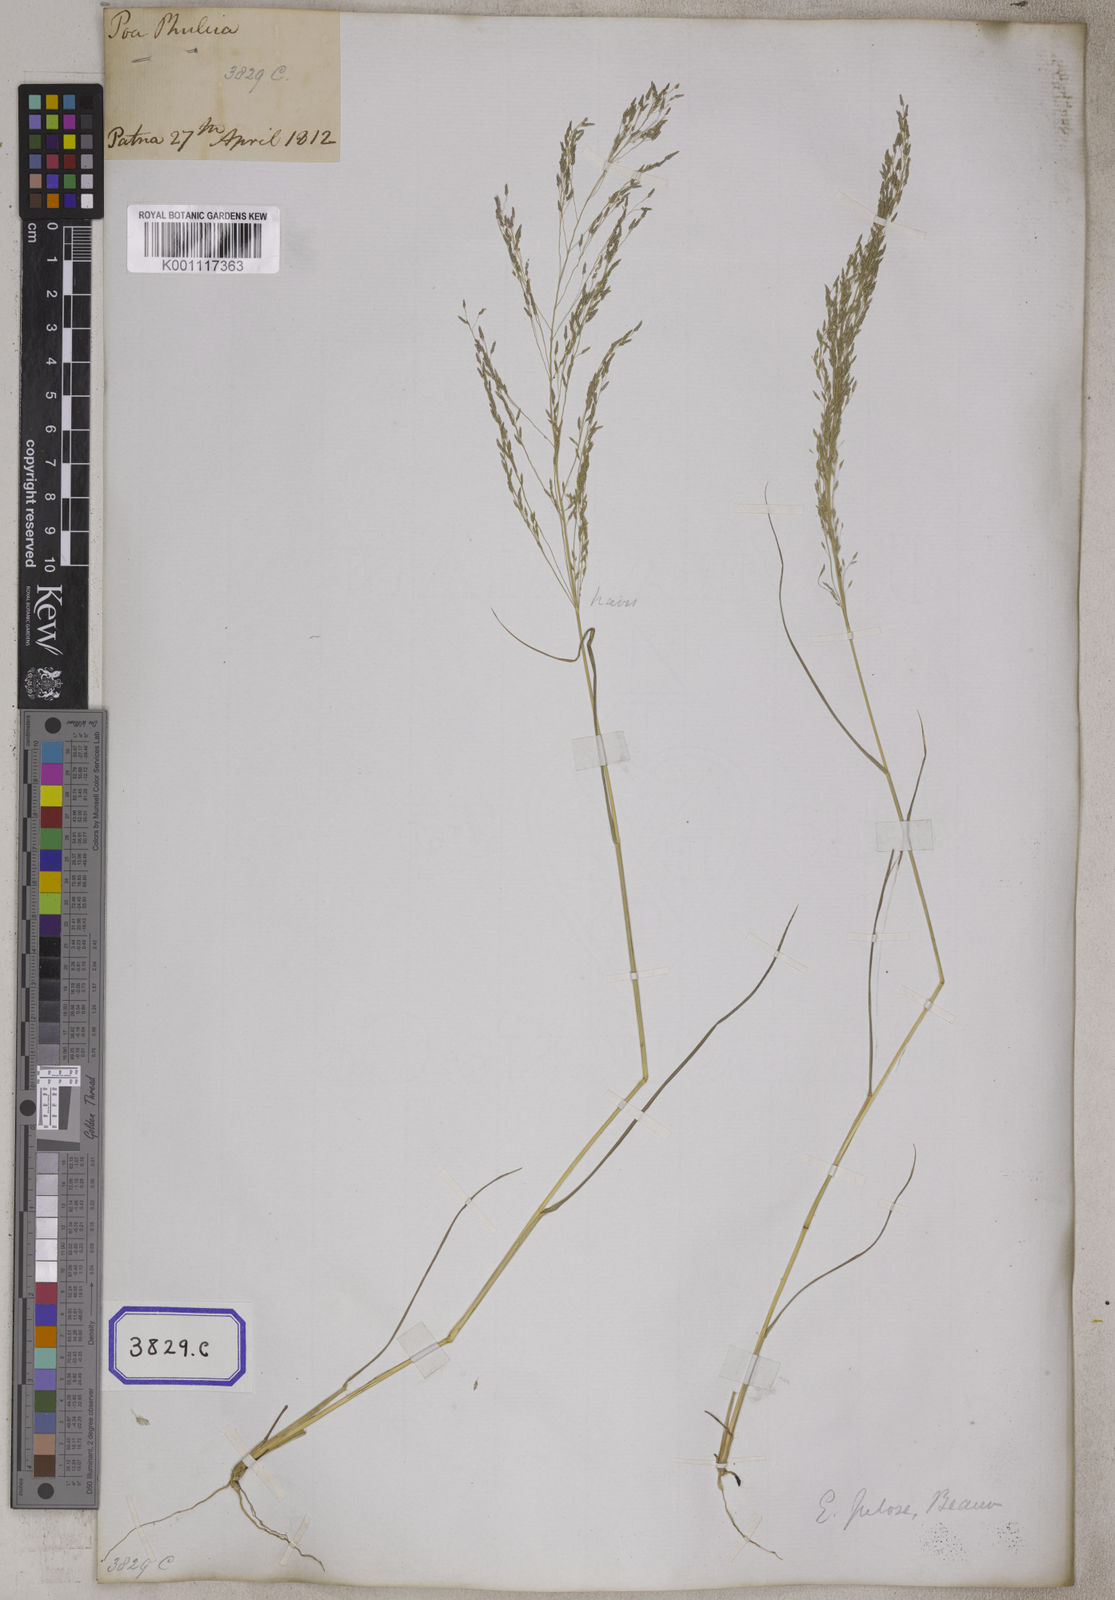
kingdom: Plantae
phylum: Tracheophyta
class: Liliopsida
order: Poales
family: Poaceae
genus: Eragrostis
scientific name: Eragrostis
